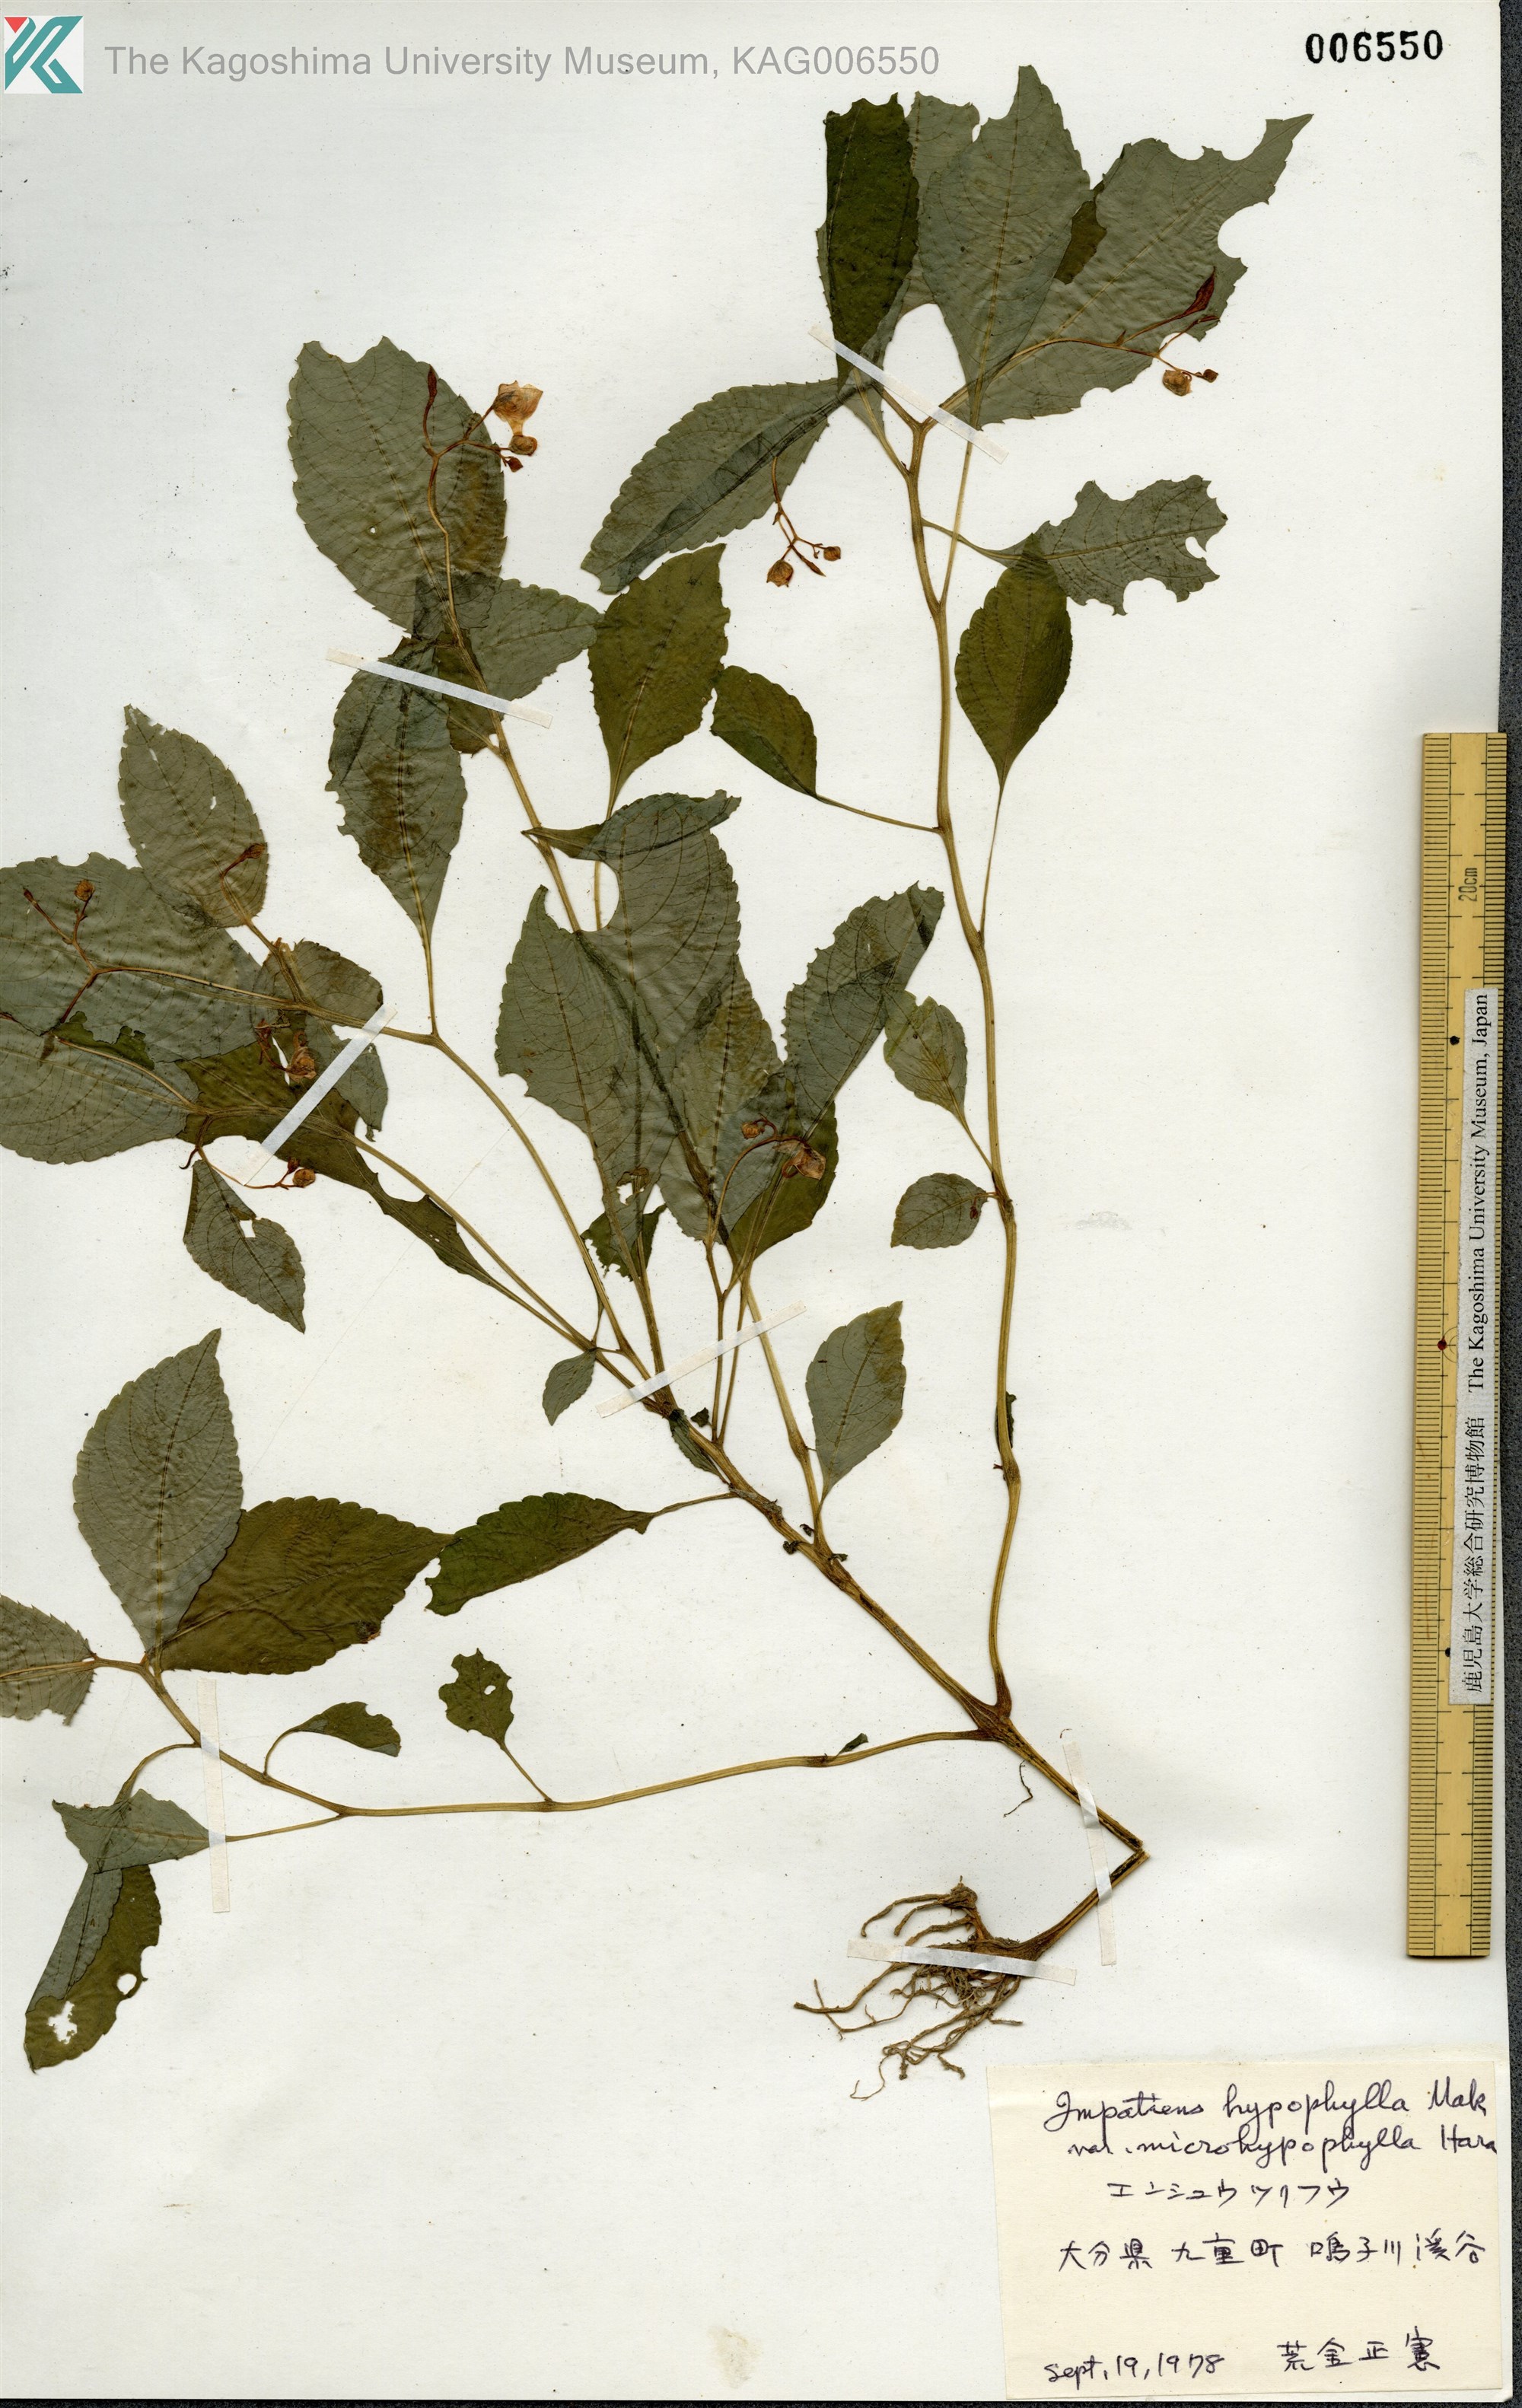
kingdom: Plantae
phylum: Tracheophyta
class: Magnoliopsida
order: Ericales
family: Balsaminaceae
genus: Impatiens
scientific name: Impatiens hypophylla
